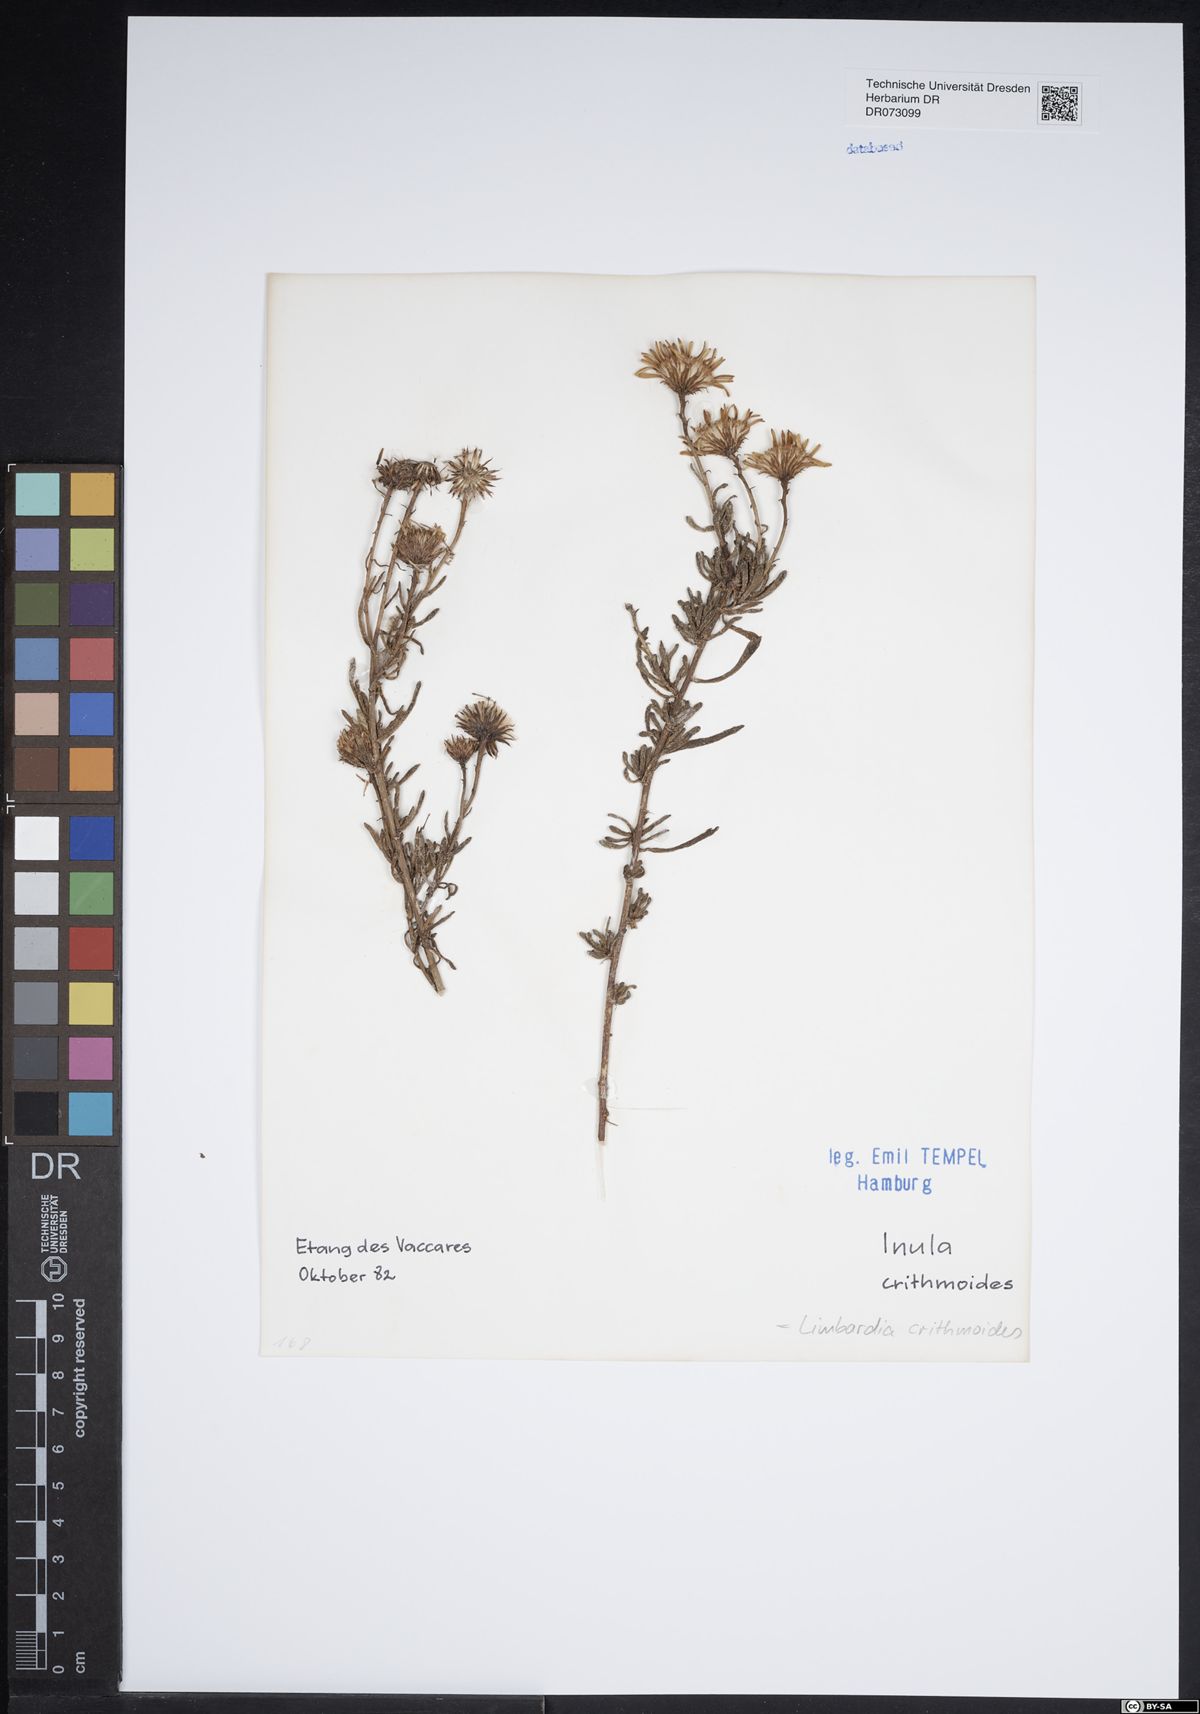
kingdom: Plantae
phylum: Tracheophyta
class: Magnoliopsida
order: Asterales
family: Asteraceae
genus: Bellis
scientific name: Bellis annua
